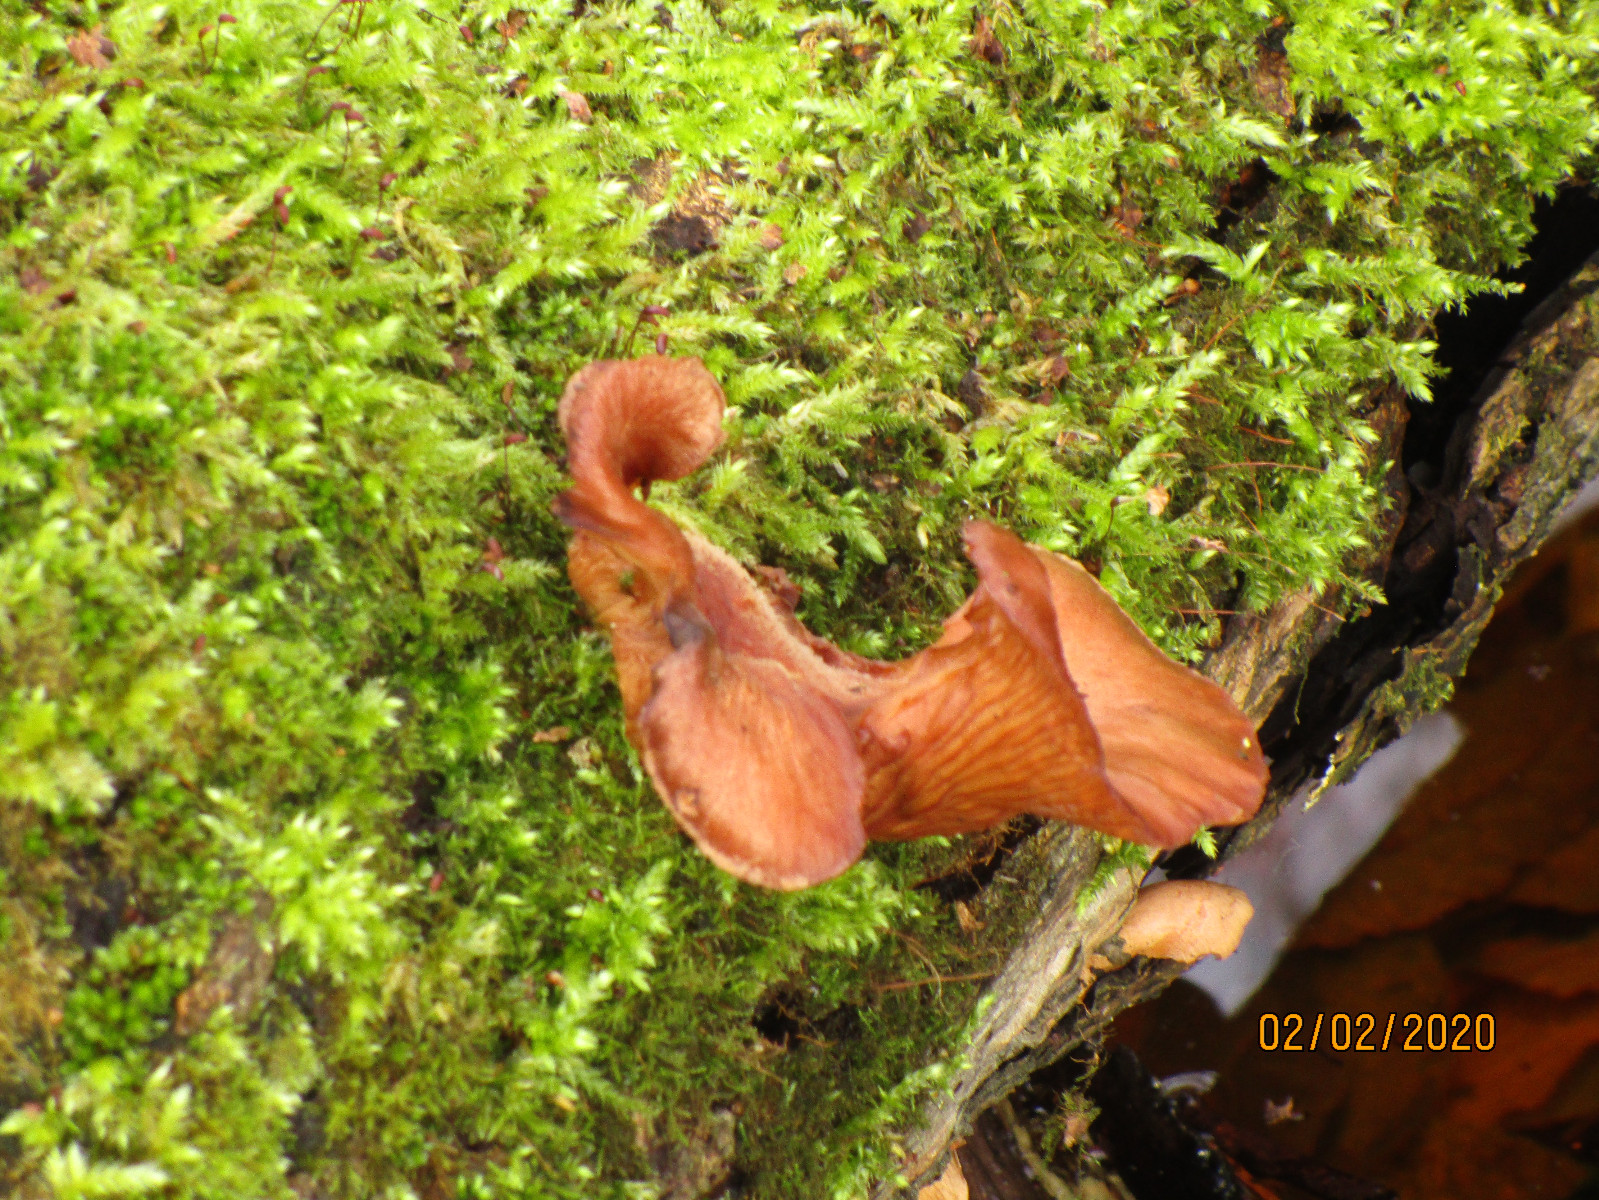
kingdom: Fungi
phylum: Basidiomycota
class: Agaricomycetes
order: Agaricales
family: Sarcomyxaceae
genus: Sarcomyxa
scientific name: Sarcomyxa serotina
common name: gummihat
